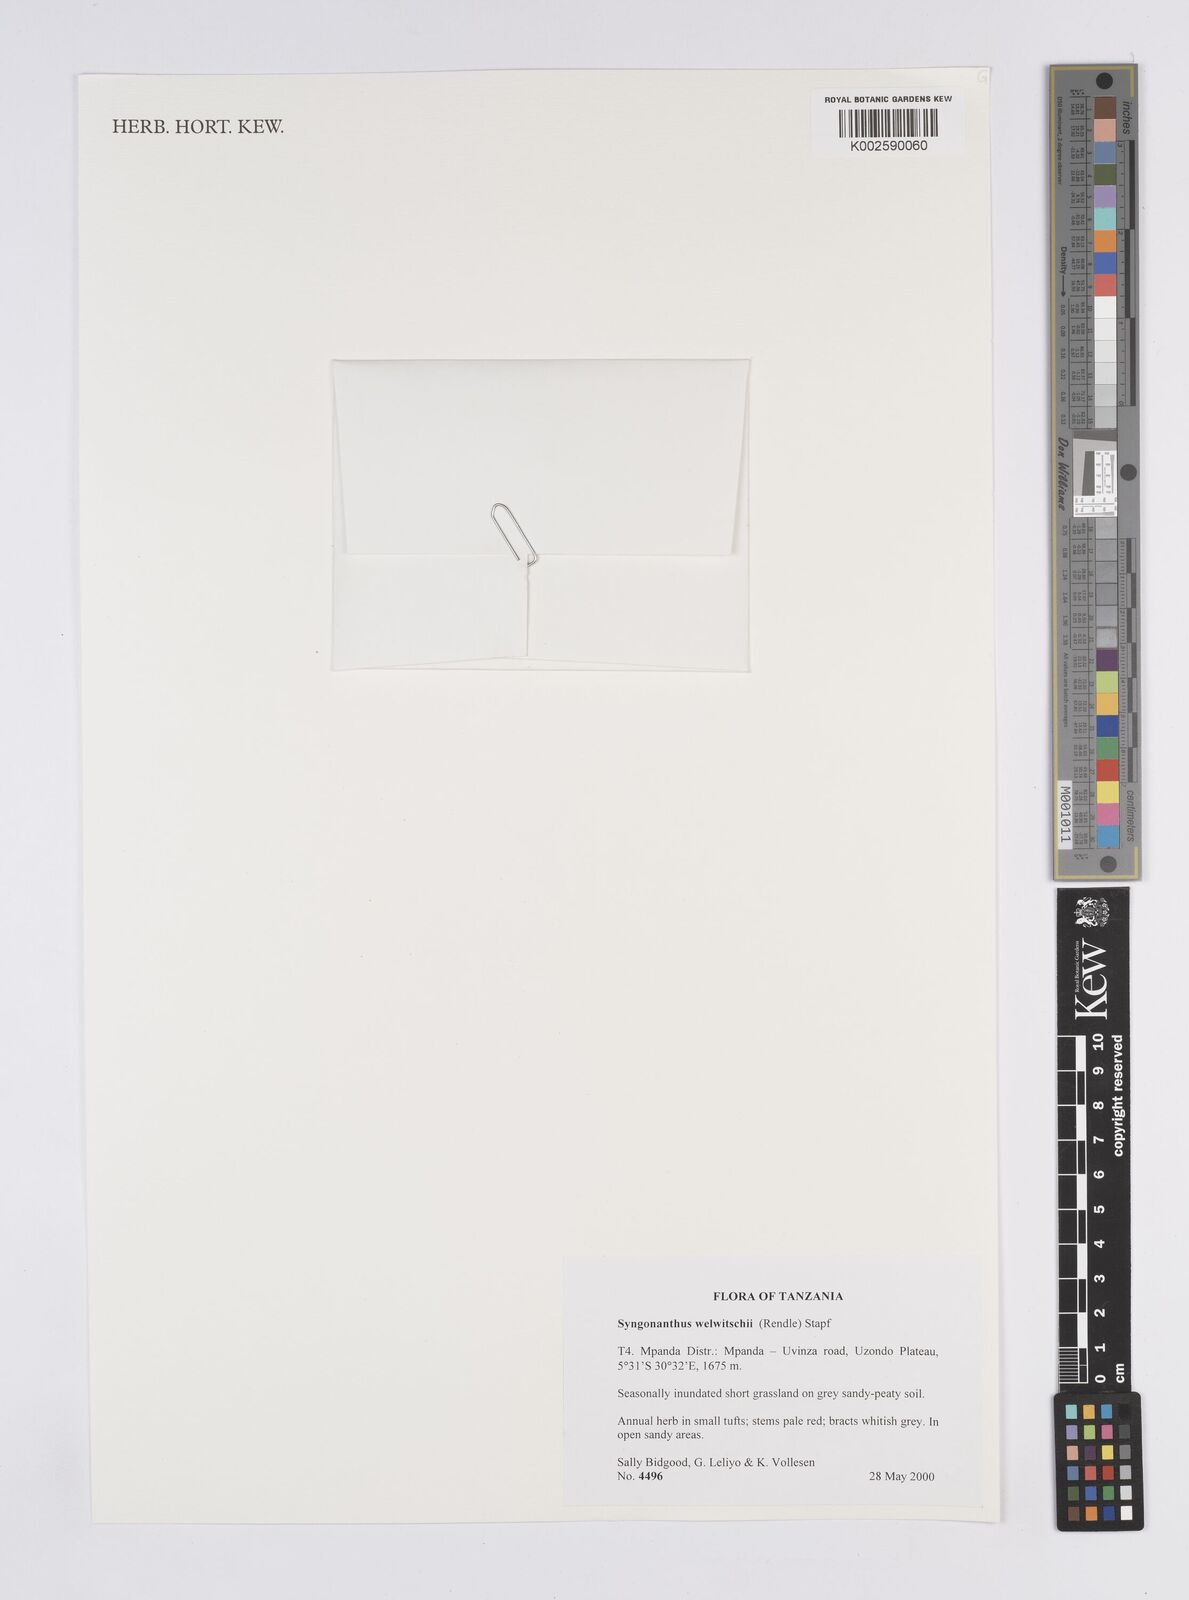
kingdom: Plantae
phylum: Tracheophyta
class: Liliopsida
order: Poales
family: Eriocaulaceae
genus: Syngonanthus
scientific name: Syngonanthus
